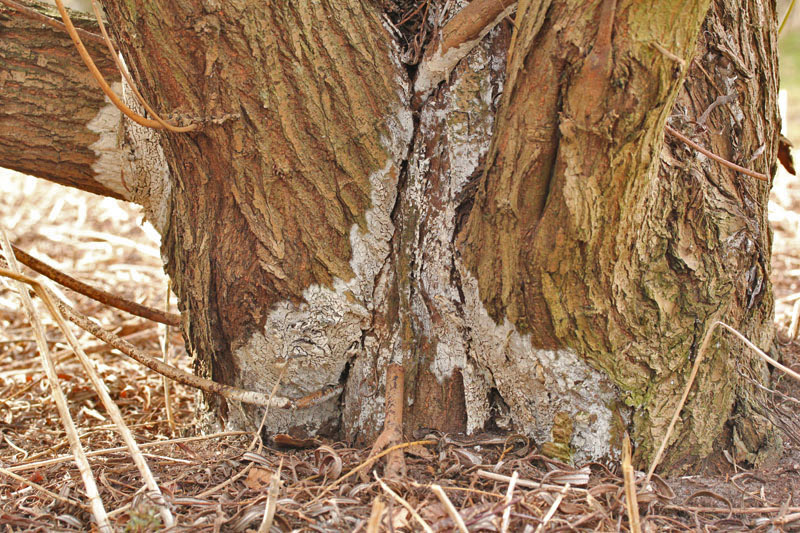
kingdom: Fungi
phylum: Basidiomycota
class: Agaricomycetes
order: Agaricales
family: Radulomycetaceae
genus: Radulomyces
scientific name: Radulomyces confluens
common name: glat naftalinskind
